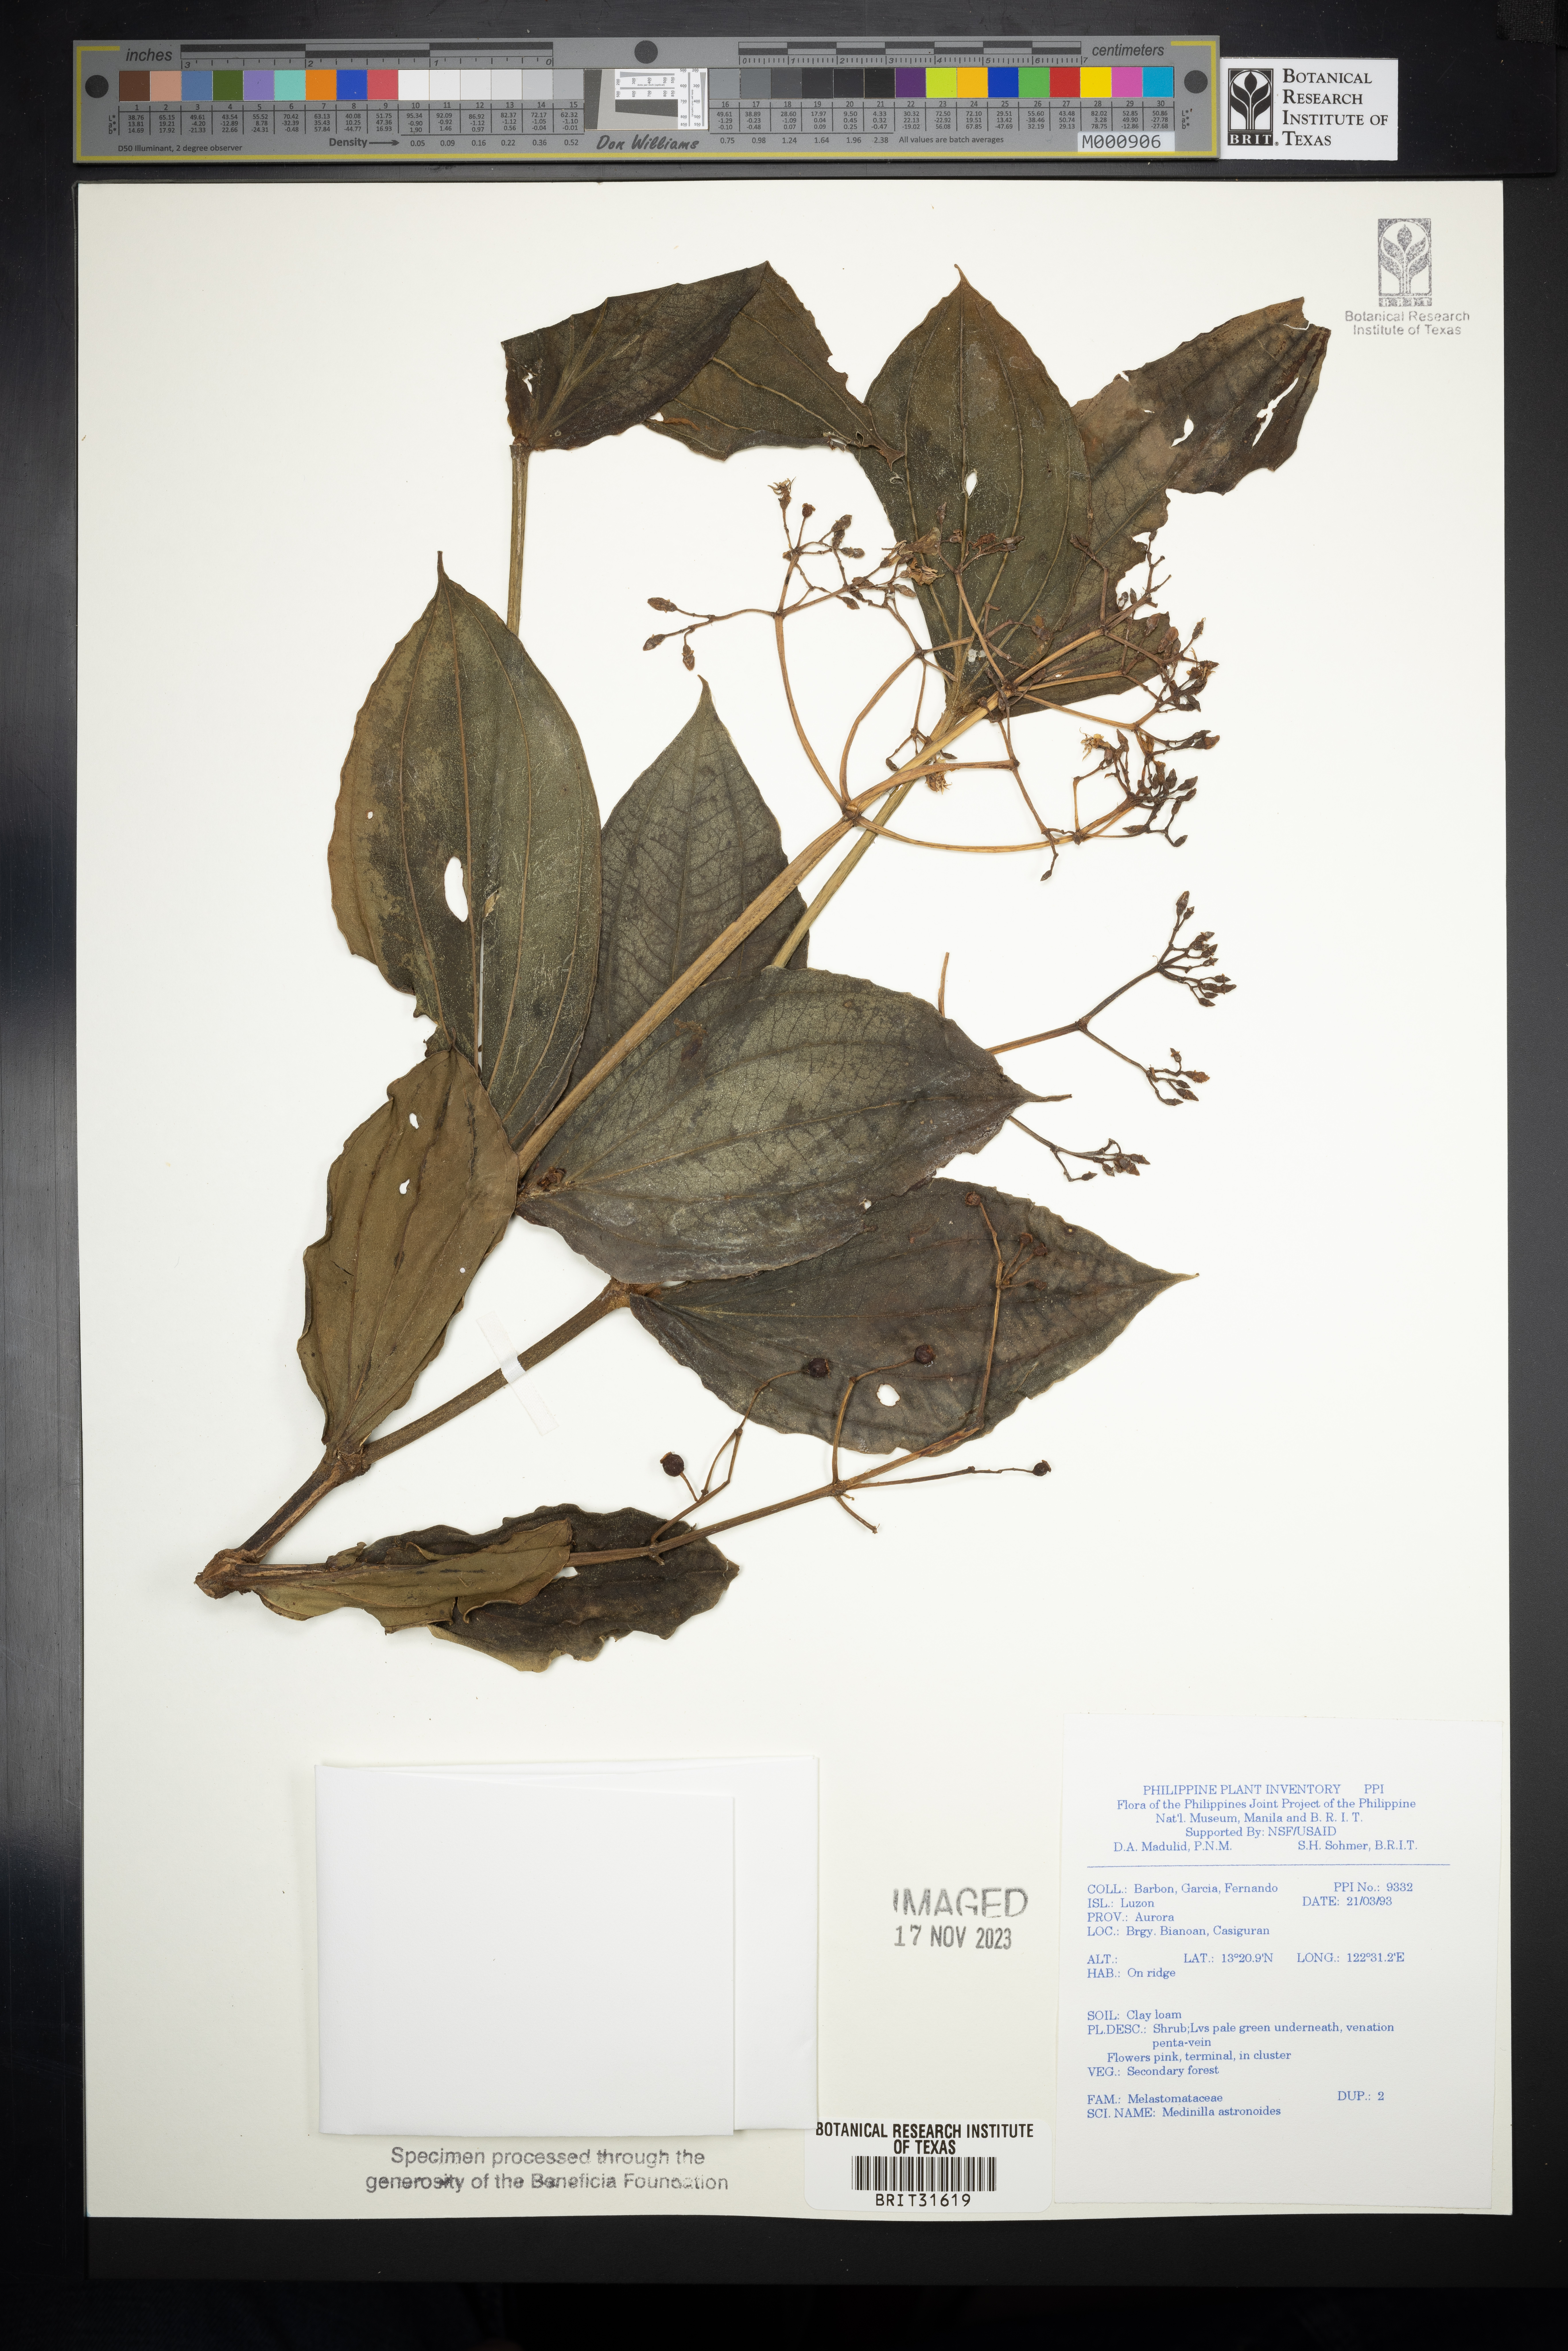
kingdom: Plantae
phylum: Tracheophyta
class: Magnoliopsida
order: Myrtales
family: Melastomataceae
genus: Medinilla
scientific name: Medinilla astronioides
